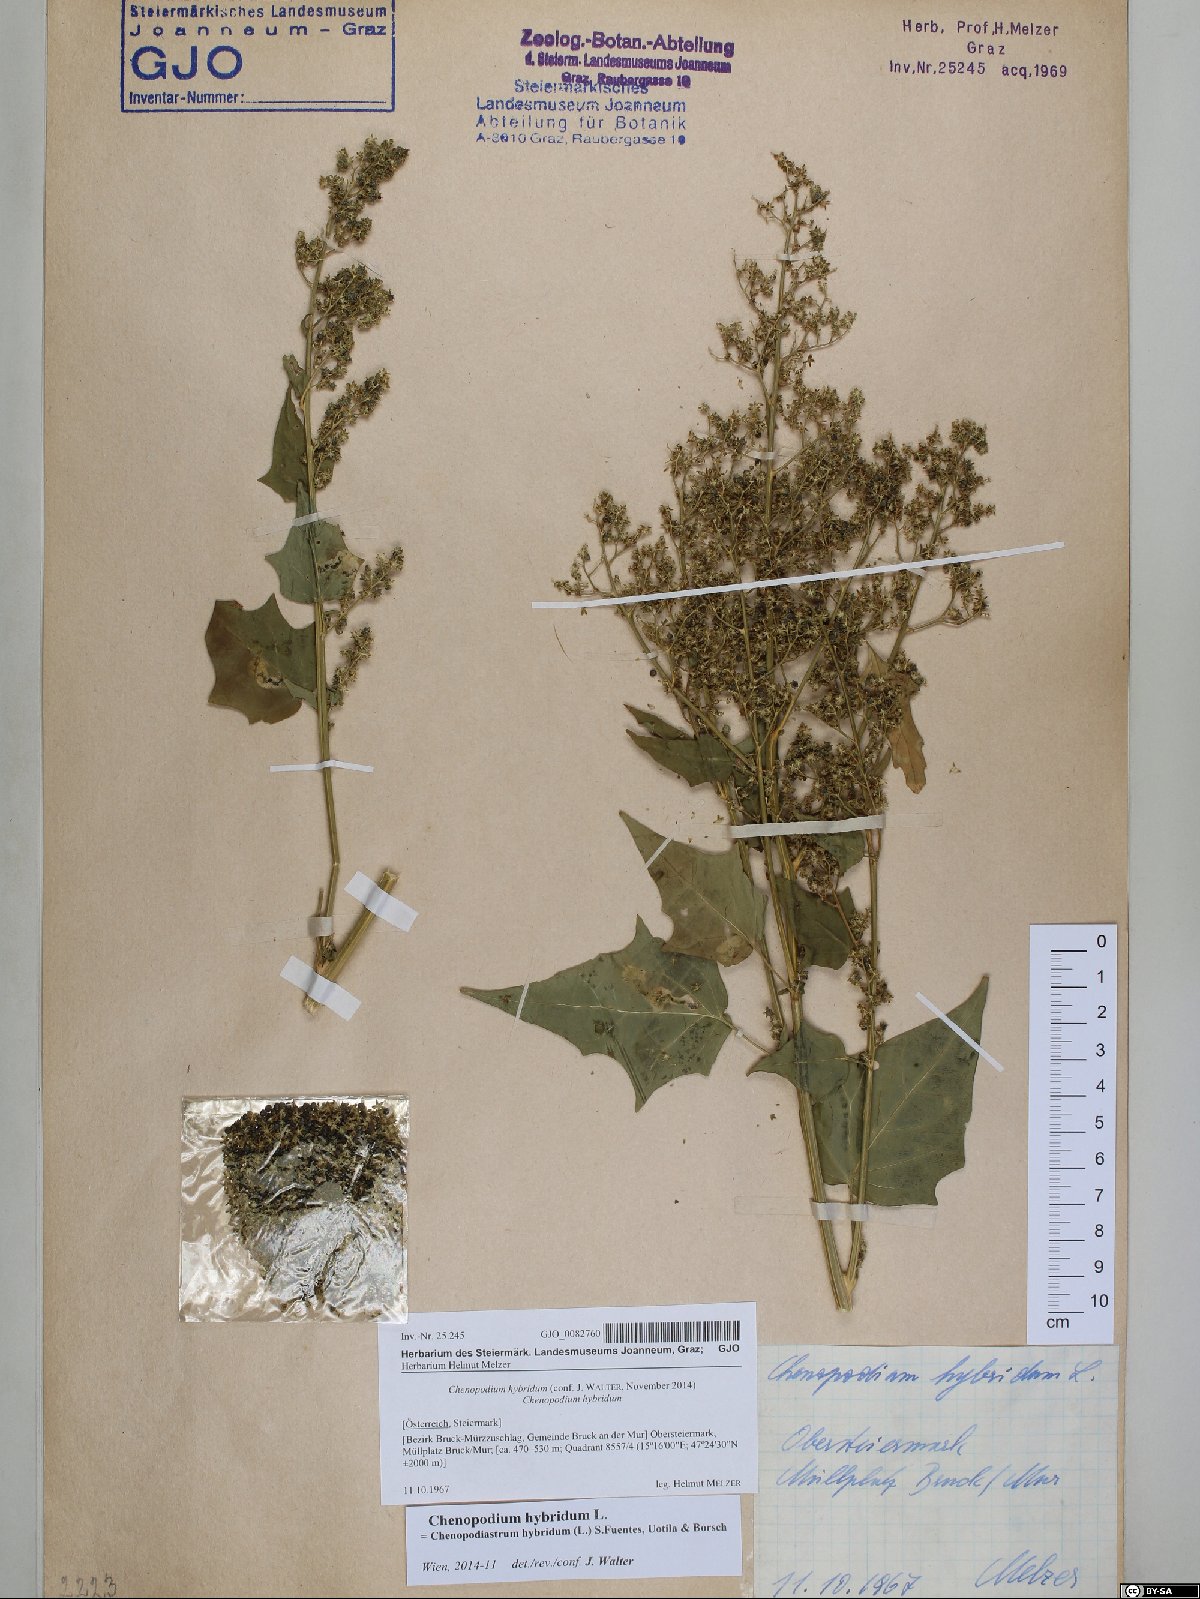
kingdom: Plantae
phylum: Tracheophyta
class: Magnoliopsida
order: Caryophyllales
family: Amaranthaceae
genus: Chenopodiastrum
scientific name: Chenopodiastrum hybridum
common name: Mapleleaf goosefoot
